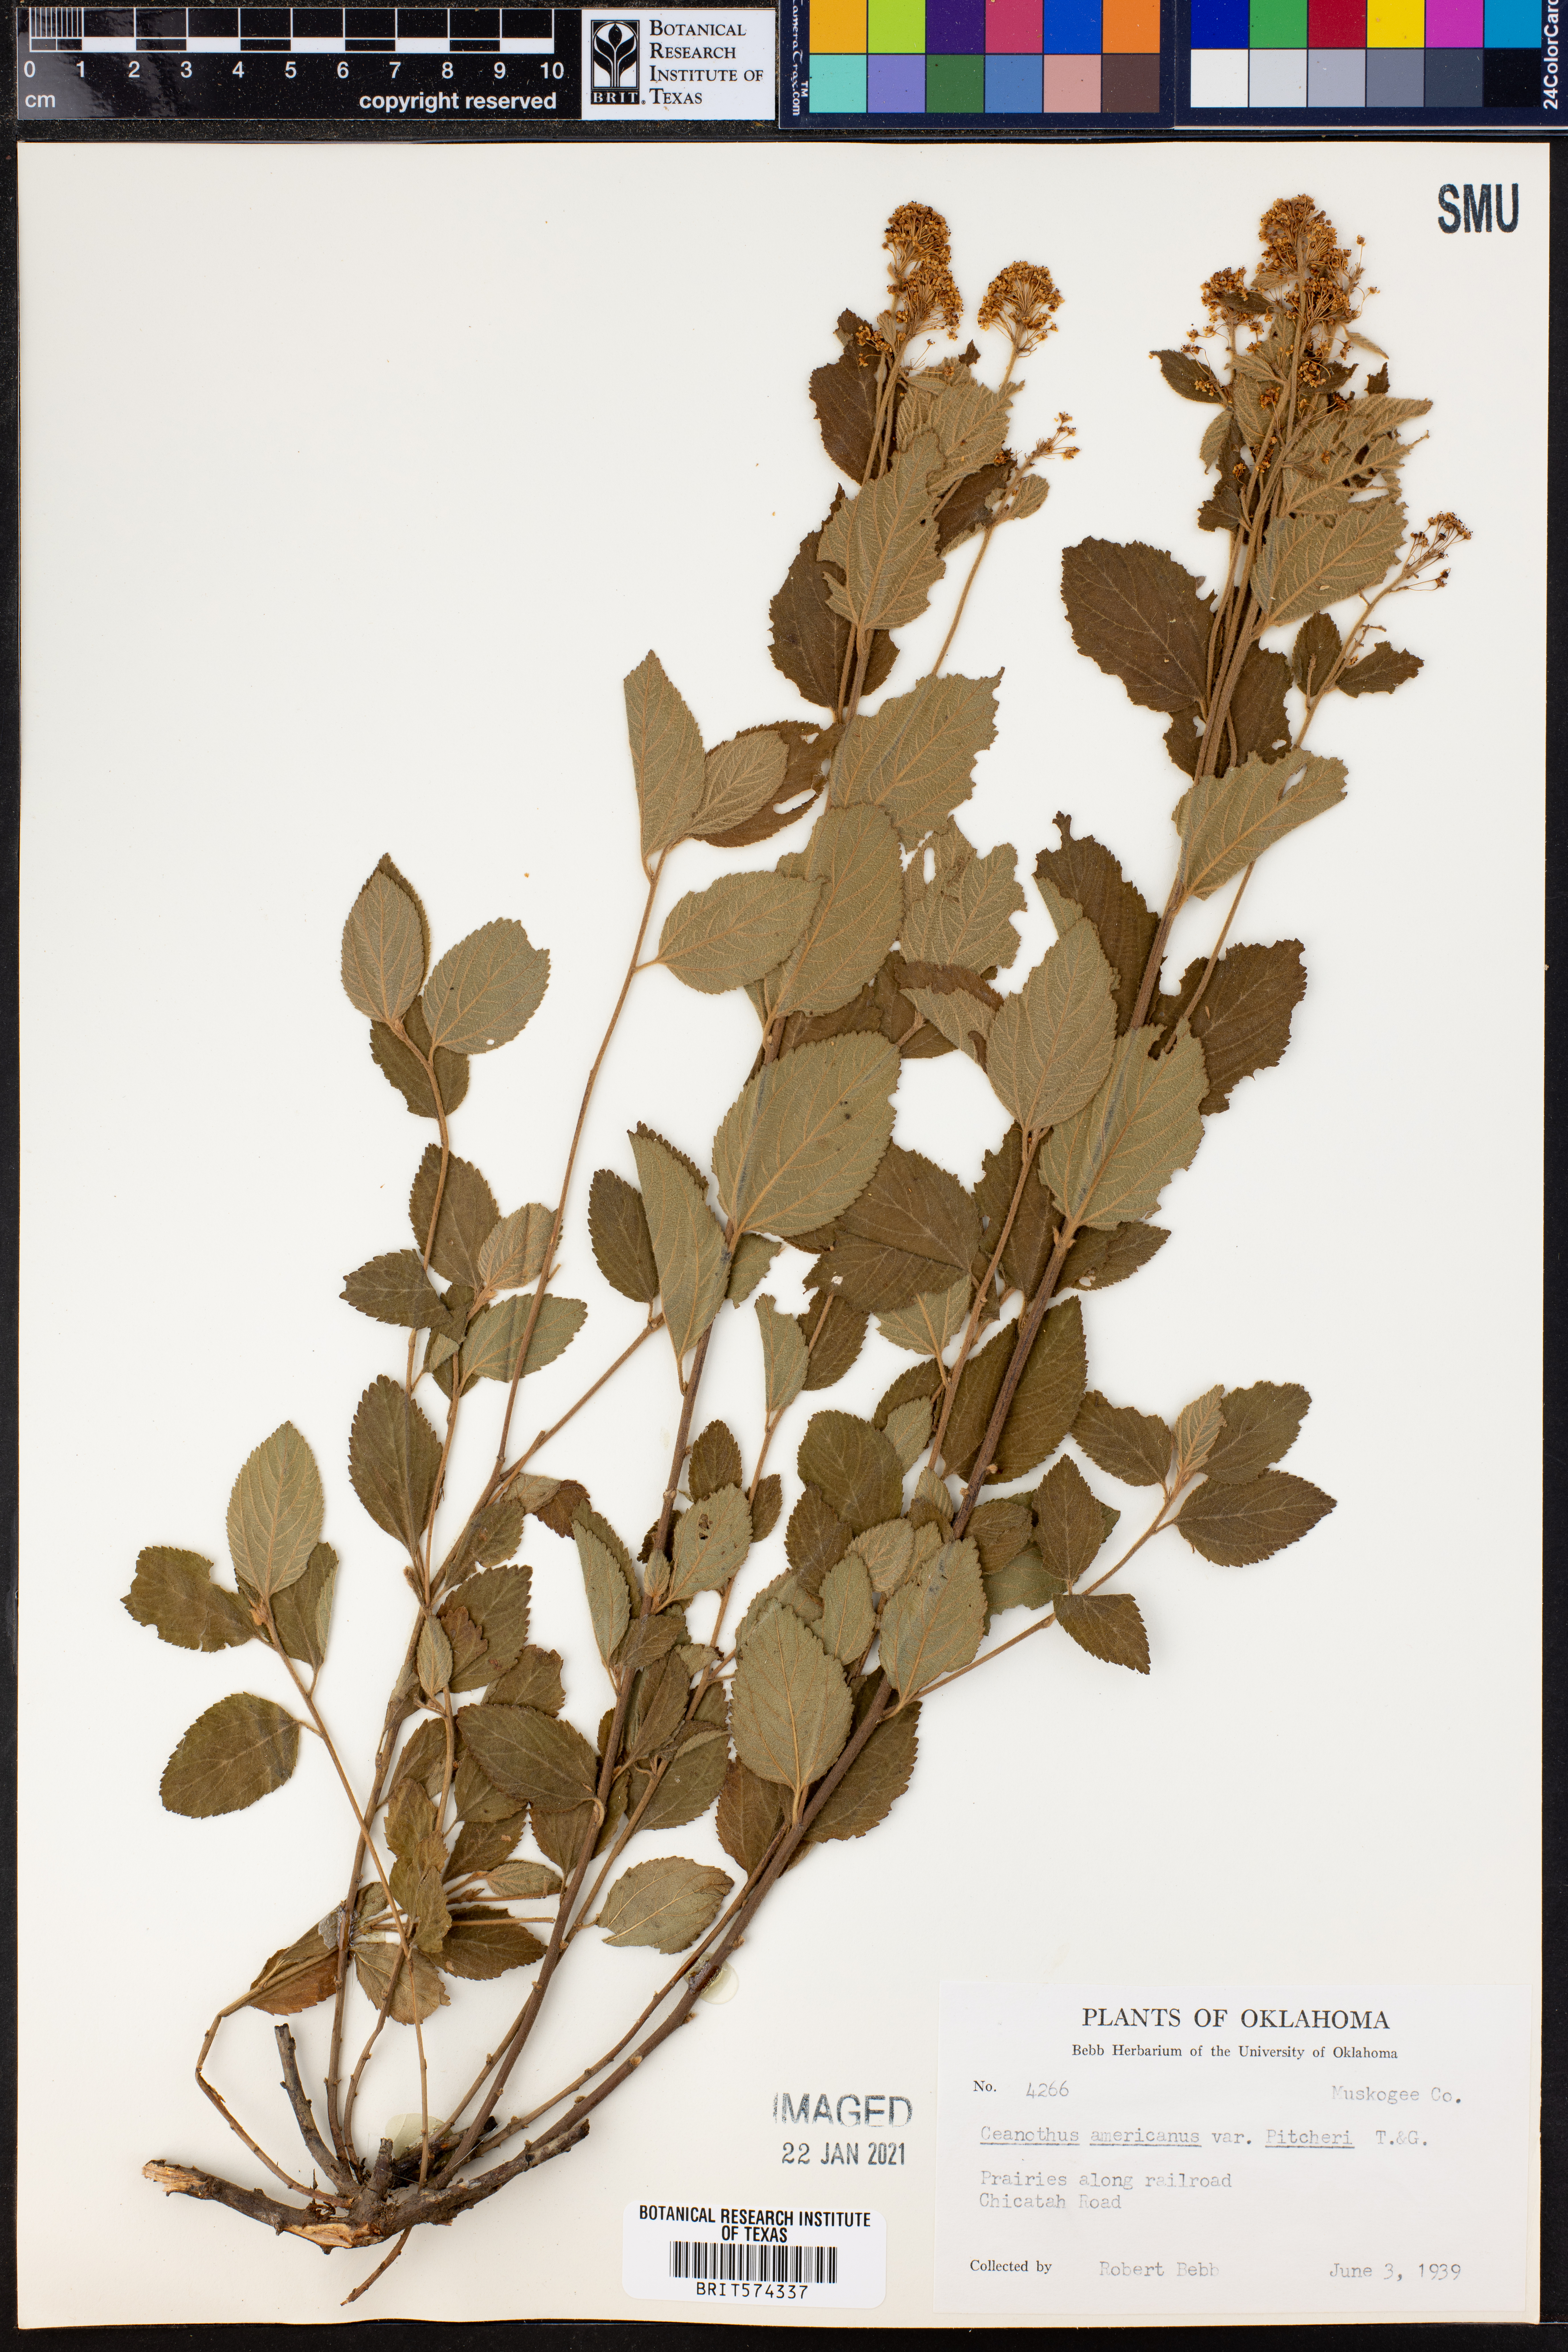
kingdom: Plantae
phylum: Tracheophyta
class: Magnoliopsida
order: Rosales
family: Rhamnaceae
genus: Ceanothus
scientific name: Ceanothus americanus
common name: Redroot
